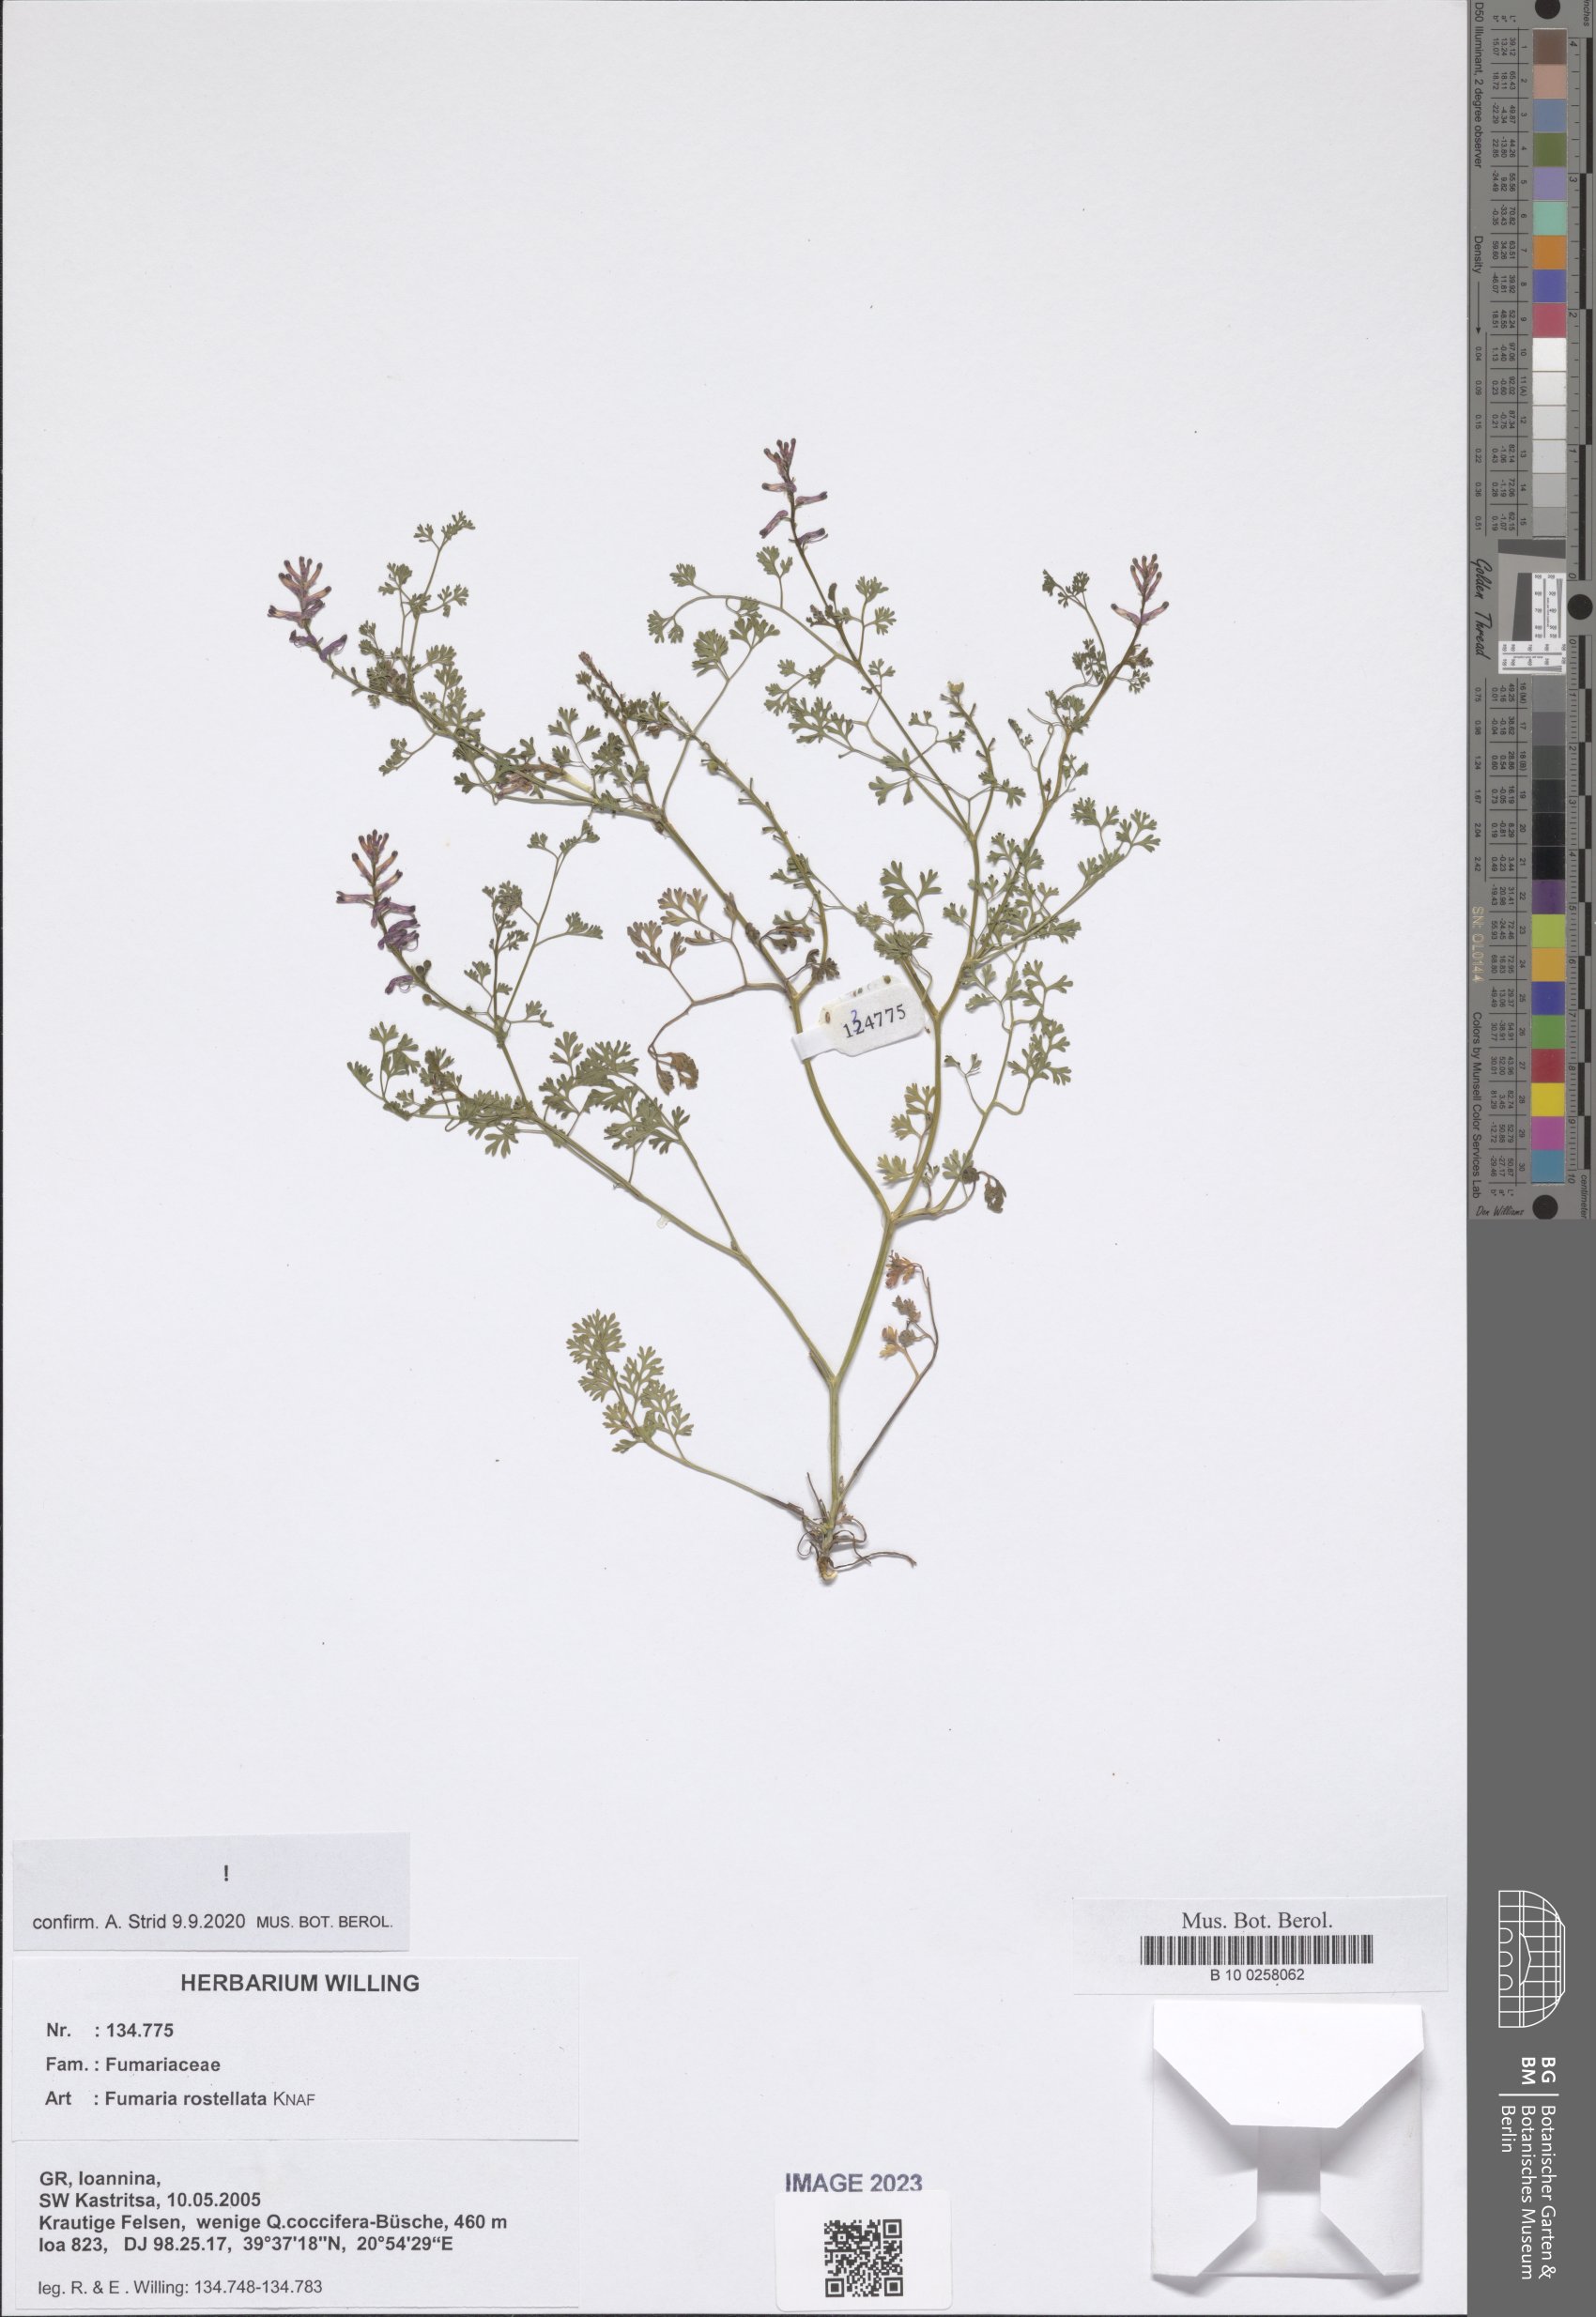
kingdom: Plantae
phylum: Tracheophyta
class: Magnoliopsida
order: Ranunculales
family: Papaveraceae
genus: Fumaria
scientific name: Fumaria rostellata
